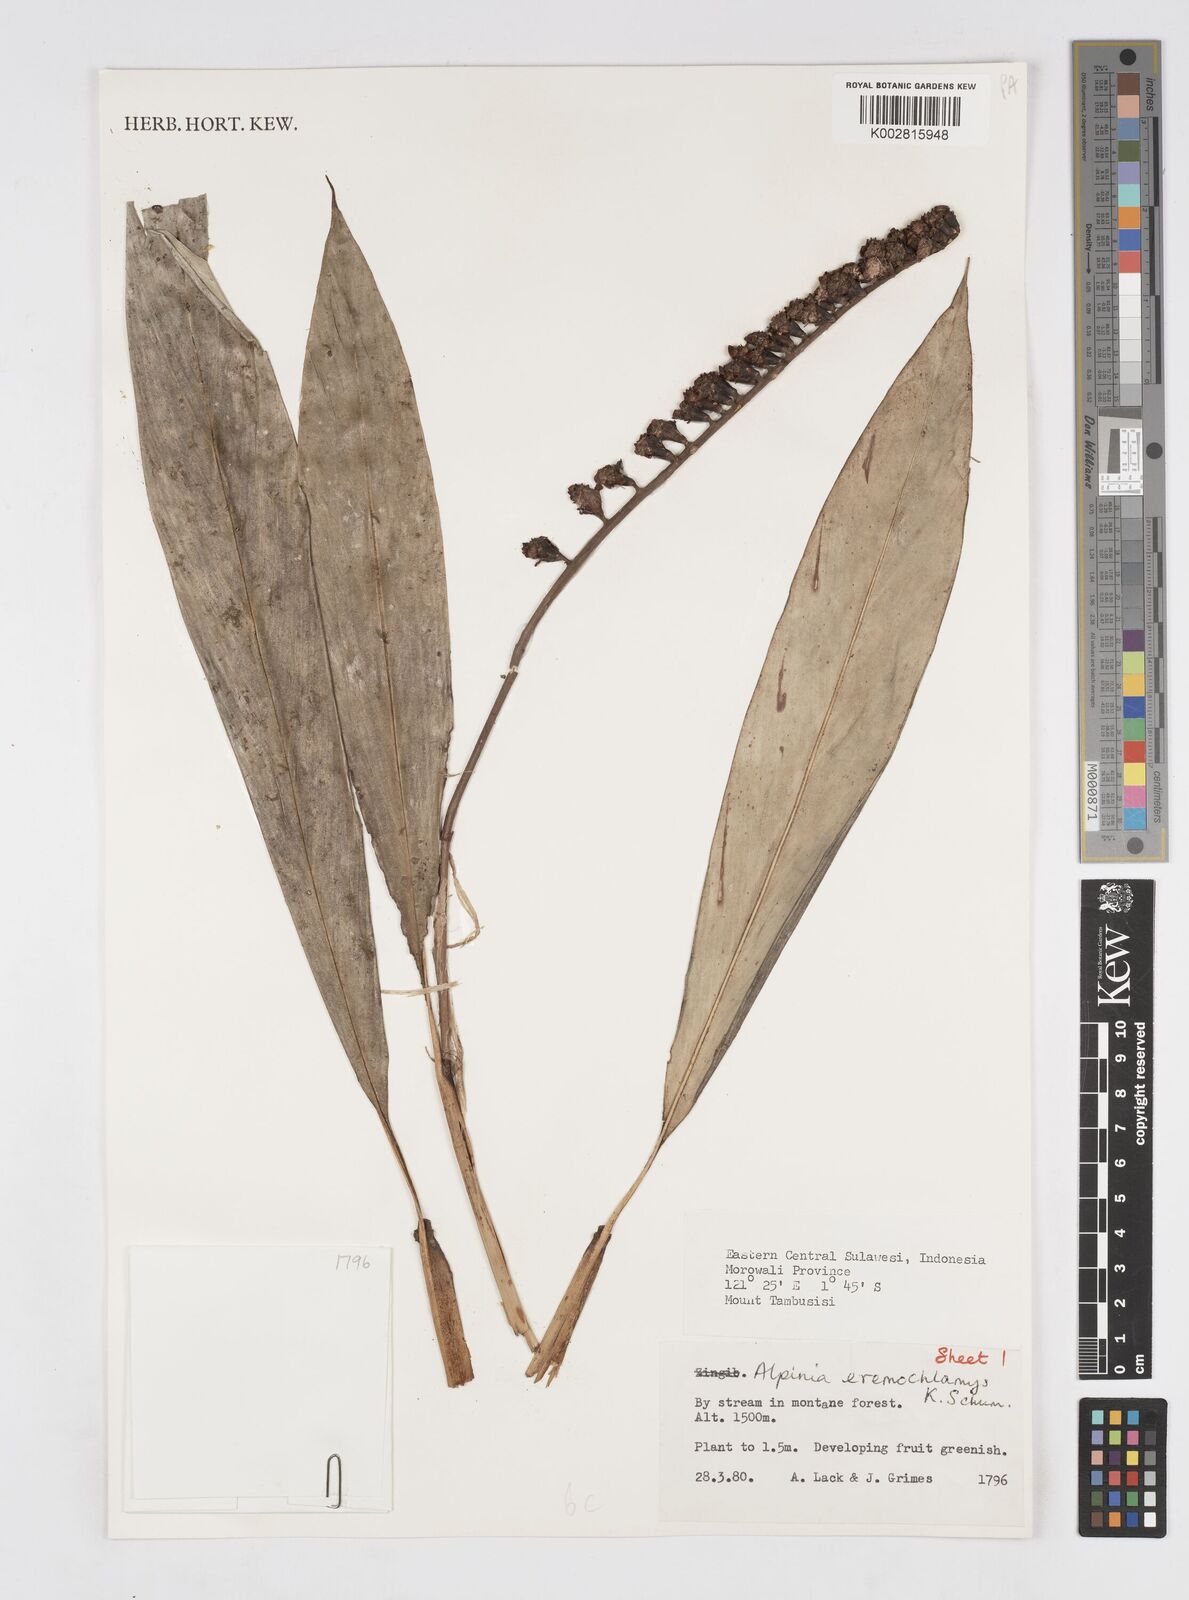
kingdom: Plantae
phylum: Tracheophyta
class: Liliopsida
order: Zingiberales
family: Zingiberaceae
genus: Alpinia
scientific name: Alpinia eremochlamys
